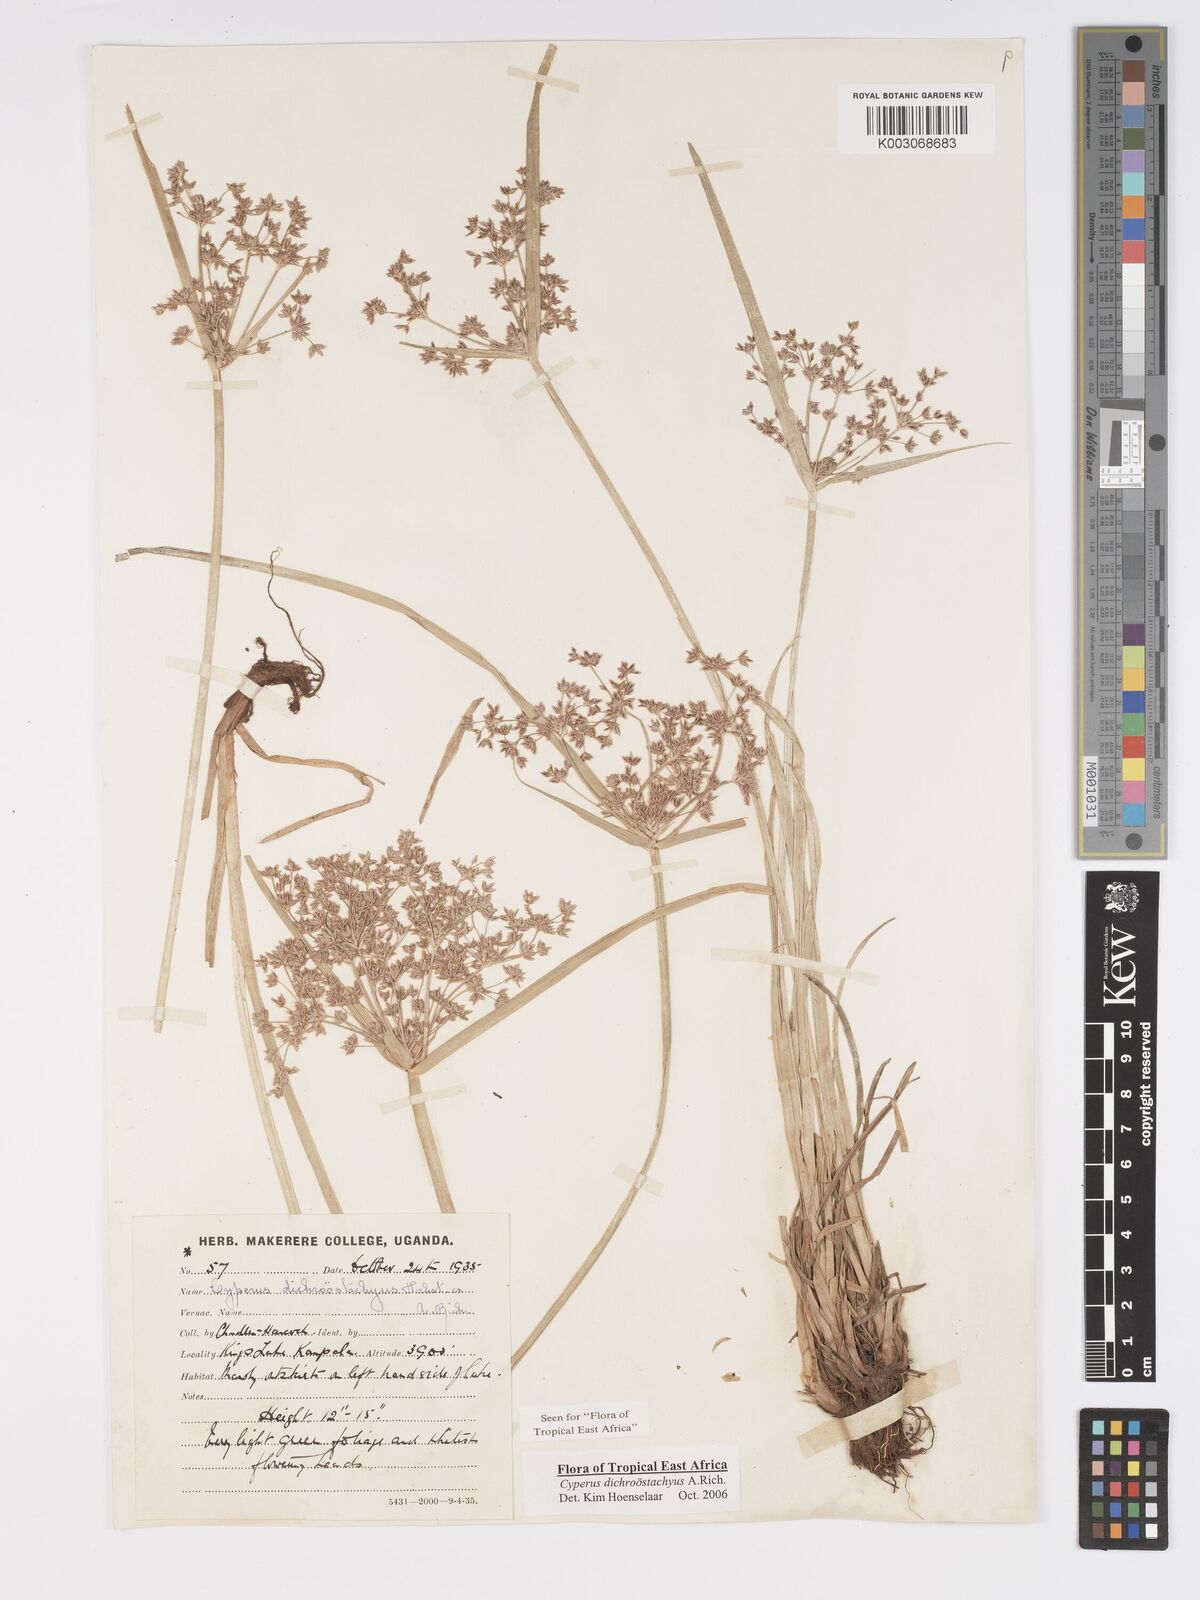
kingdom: Plantae
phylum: Tracheophyta
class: Liliopsida
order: Poales
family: Cyperaceae
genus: Cyperus
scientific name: Cyperus dichrostachyus
